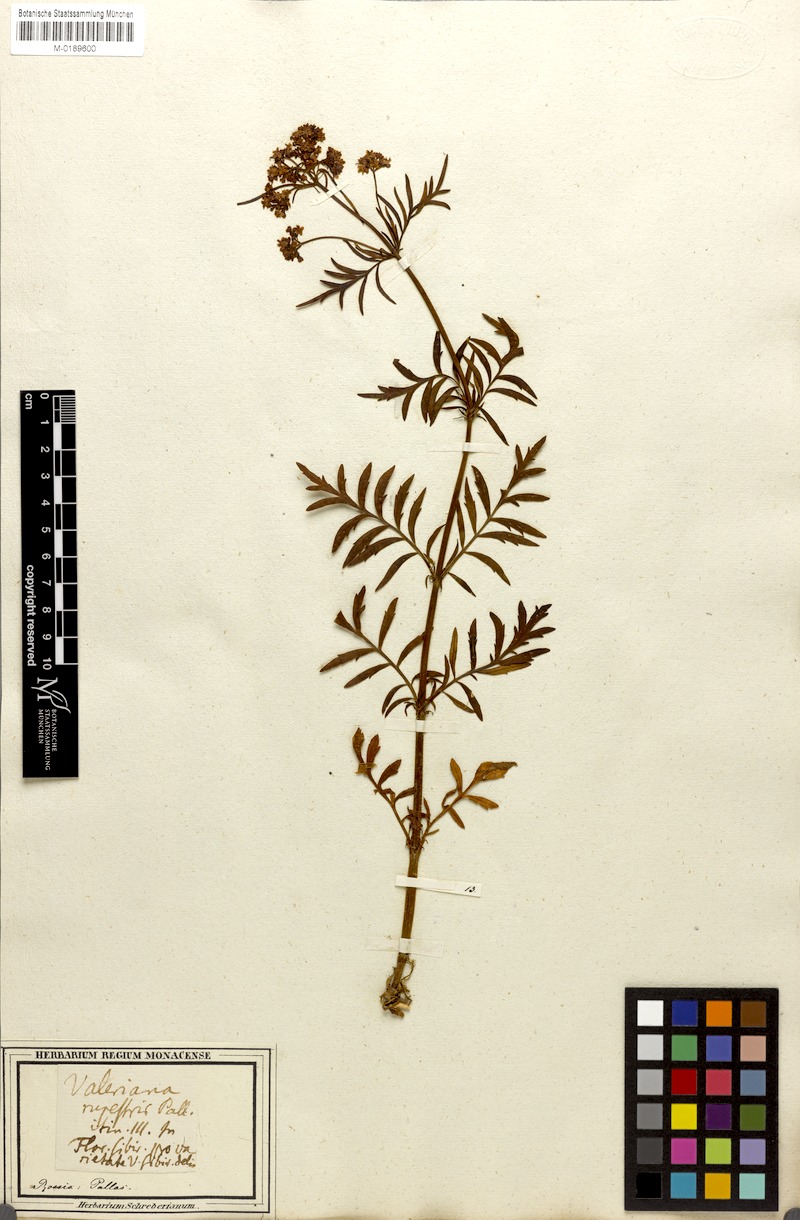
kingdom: Plantae
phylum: Tracheophyta
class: Magnoliopsida
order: Dipsacales
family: Caprifoliaceae
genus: Patrinia
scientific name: Patrinia rupestris
